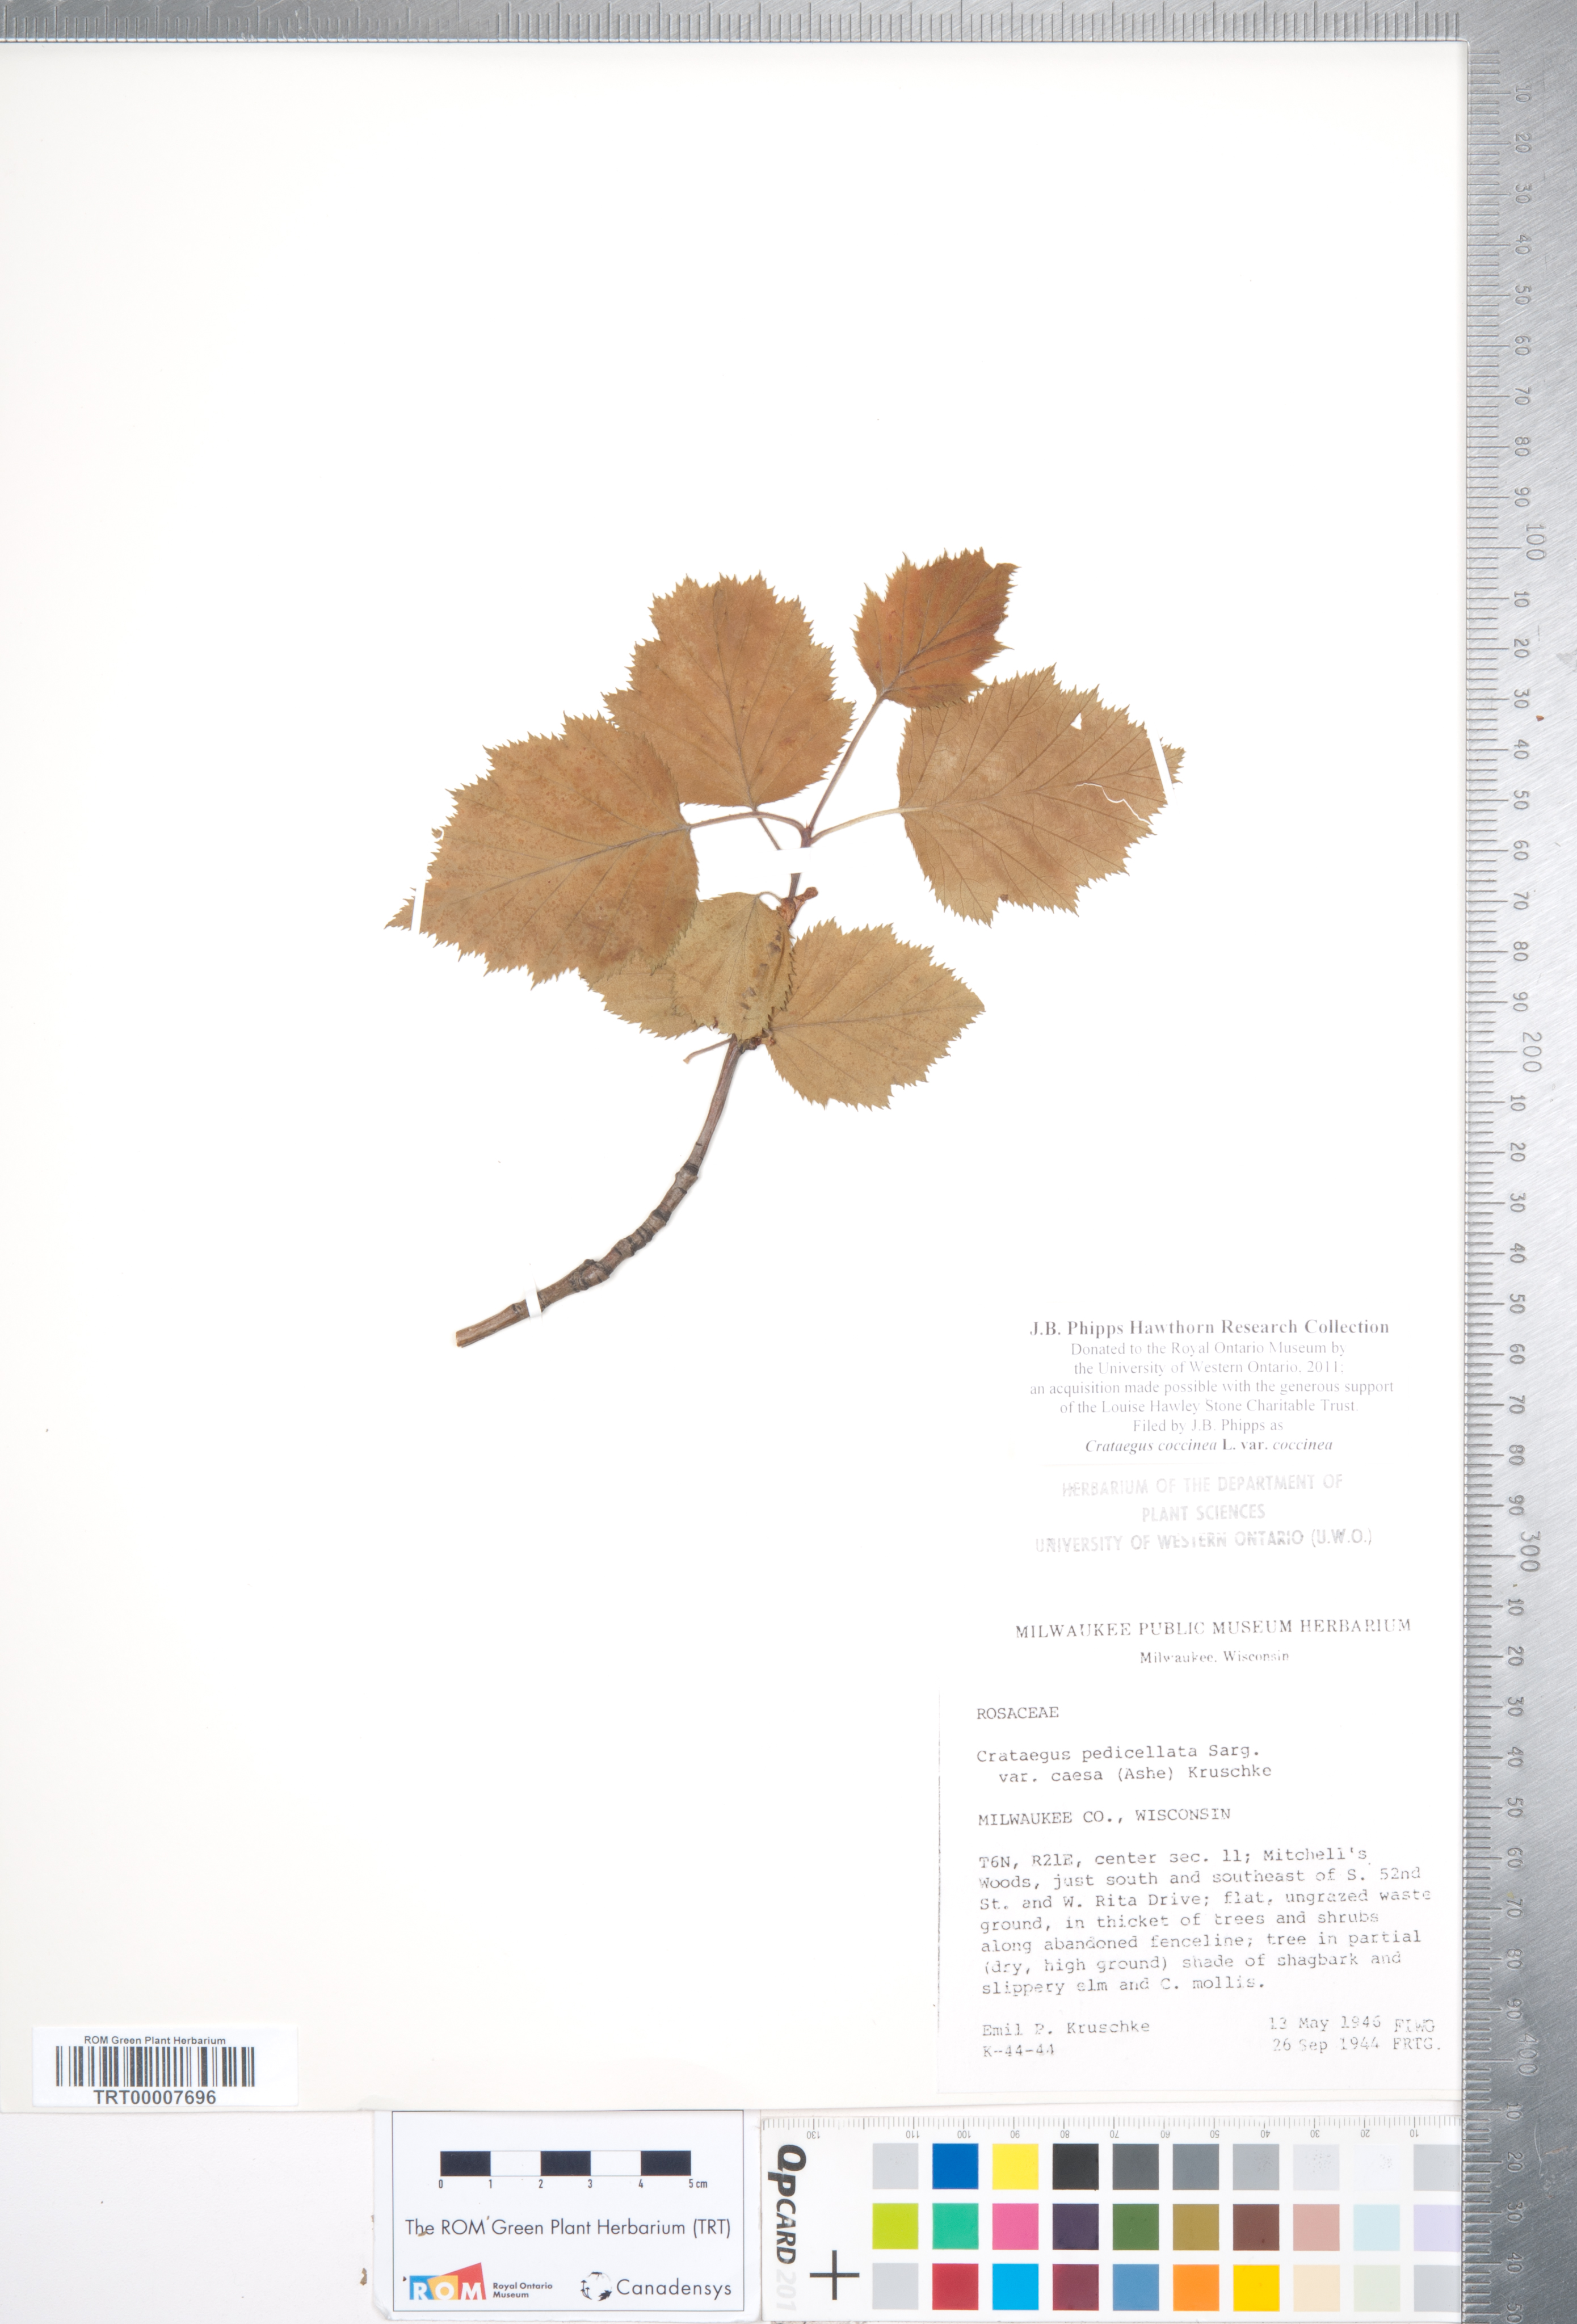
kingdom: Plantae
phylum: Tracheophyta
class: Magnoliopsida
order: Rosales
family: Rosaceae
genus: Crataegus
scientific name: Crataegus coccinea
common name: Scarlet hawthorn
